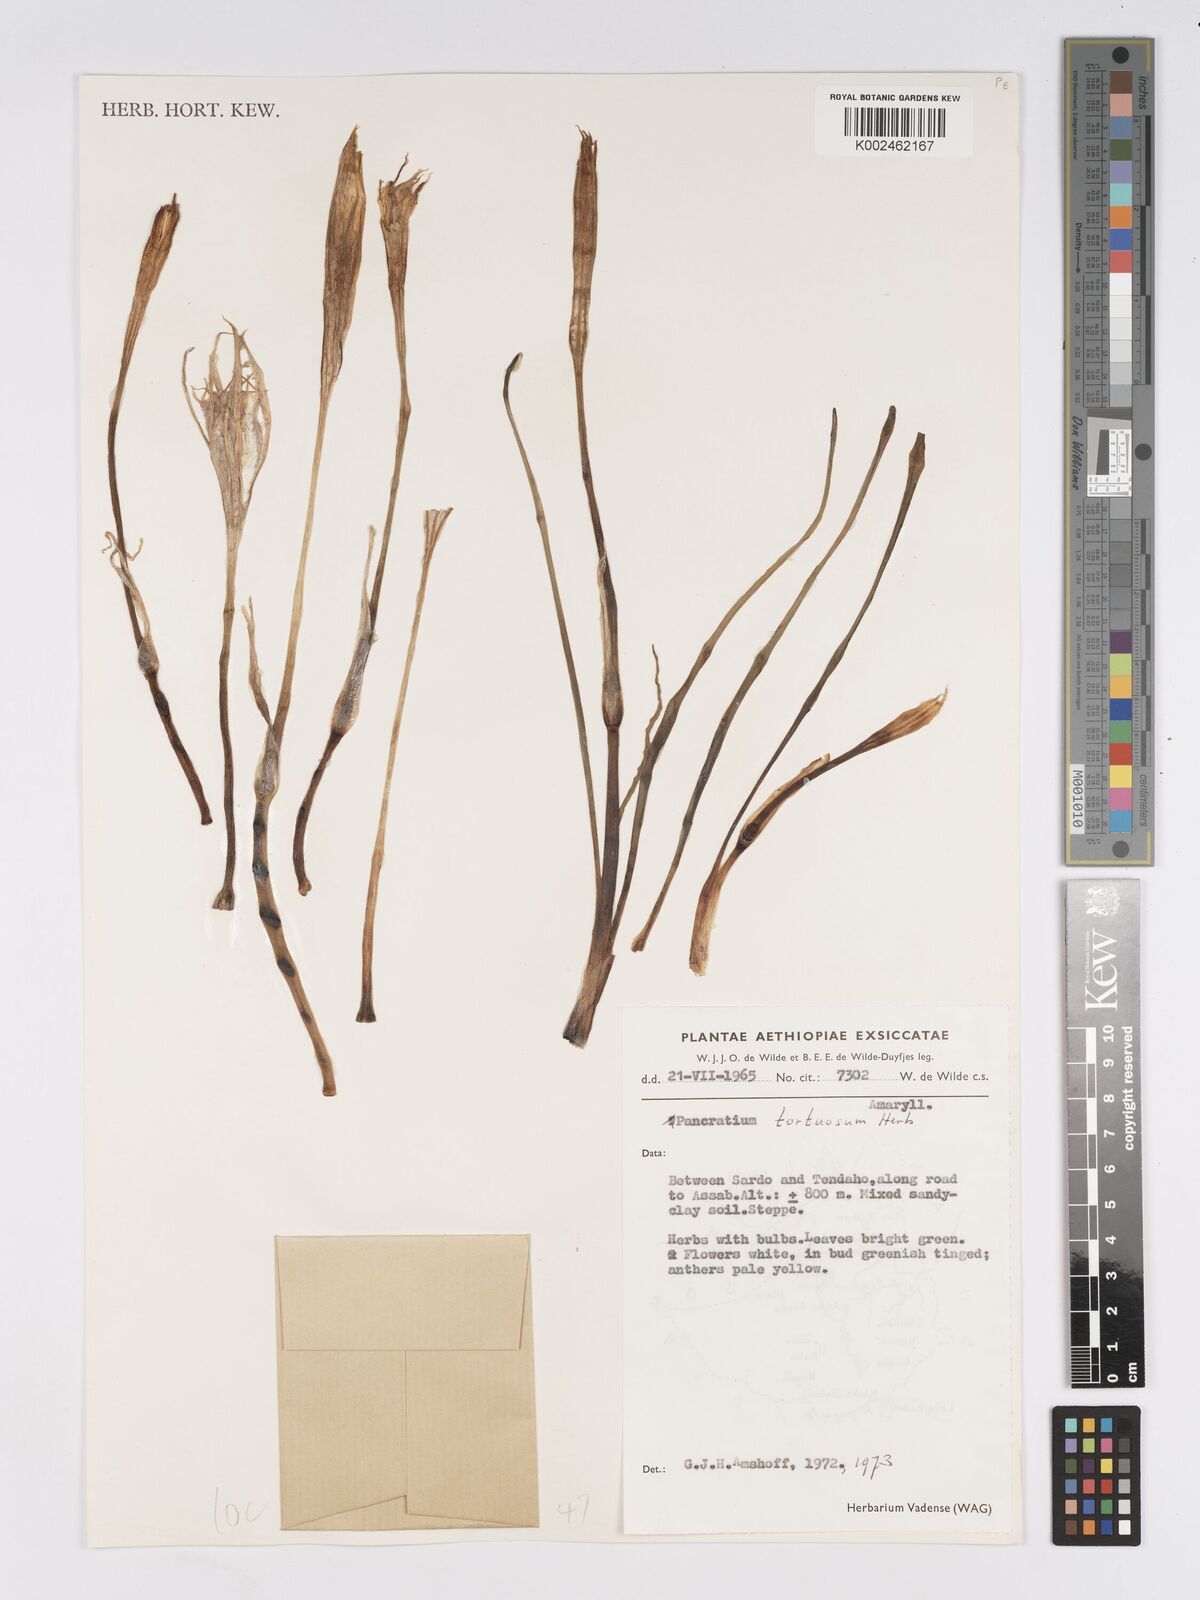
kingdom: Plantae
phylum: Tracheophyta
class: Liliopsida
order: Asparagales
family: Amaryllidaceae
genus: Pancratium
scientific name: Pancratium tortuosum
